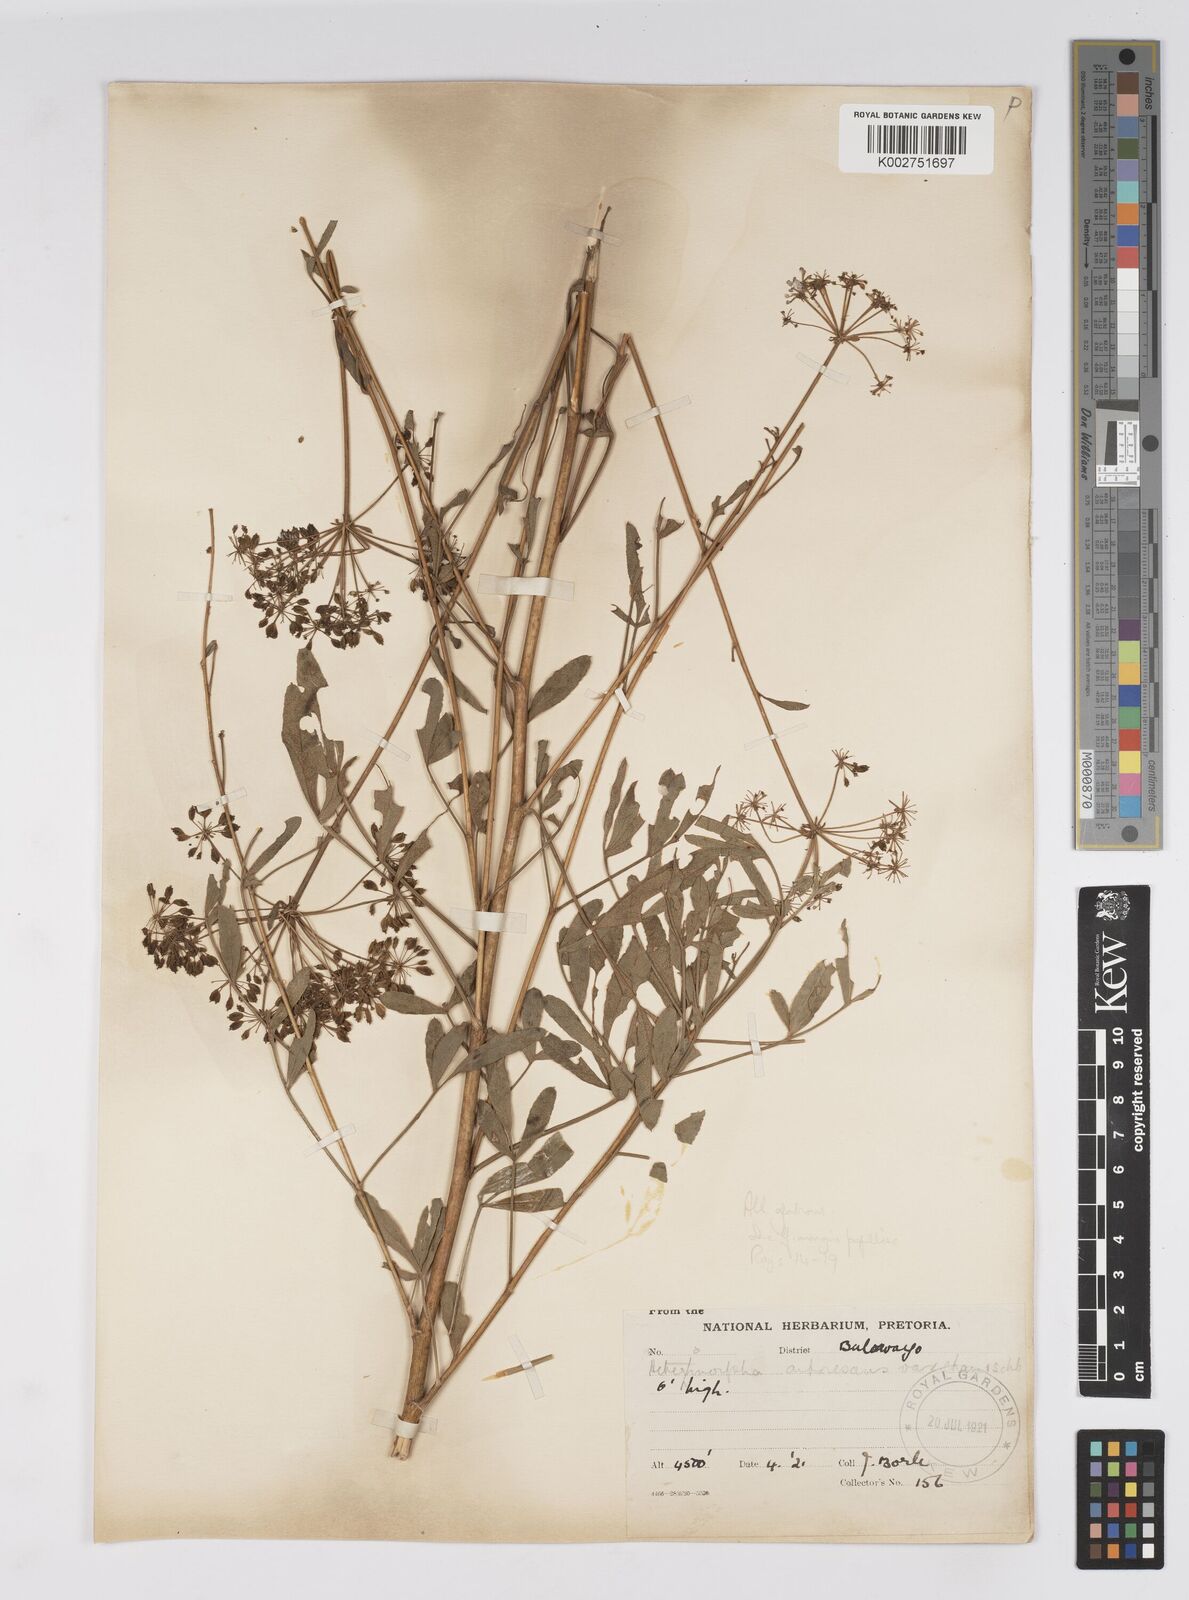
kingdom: Plantae
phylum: Tracheophyta
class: Magnoliopsida
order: Apiales
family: Apiaceae
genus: Heteromorpha
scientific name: Heteromorpha stenophylla
